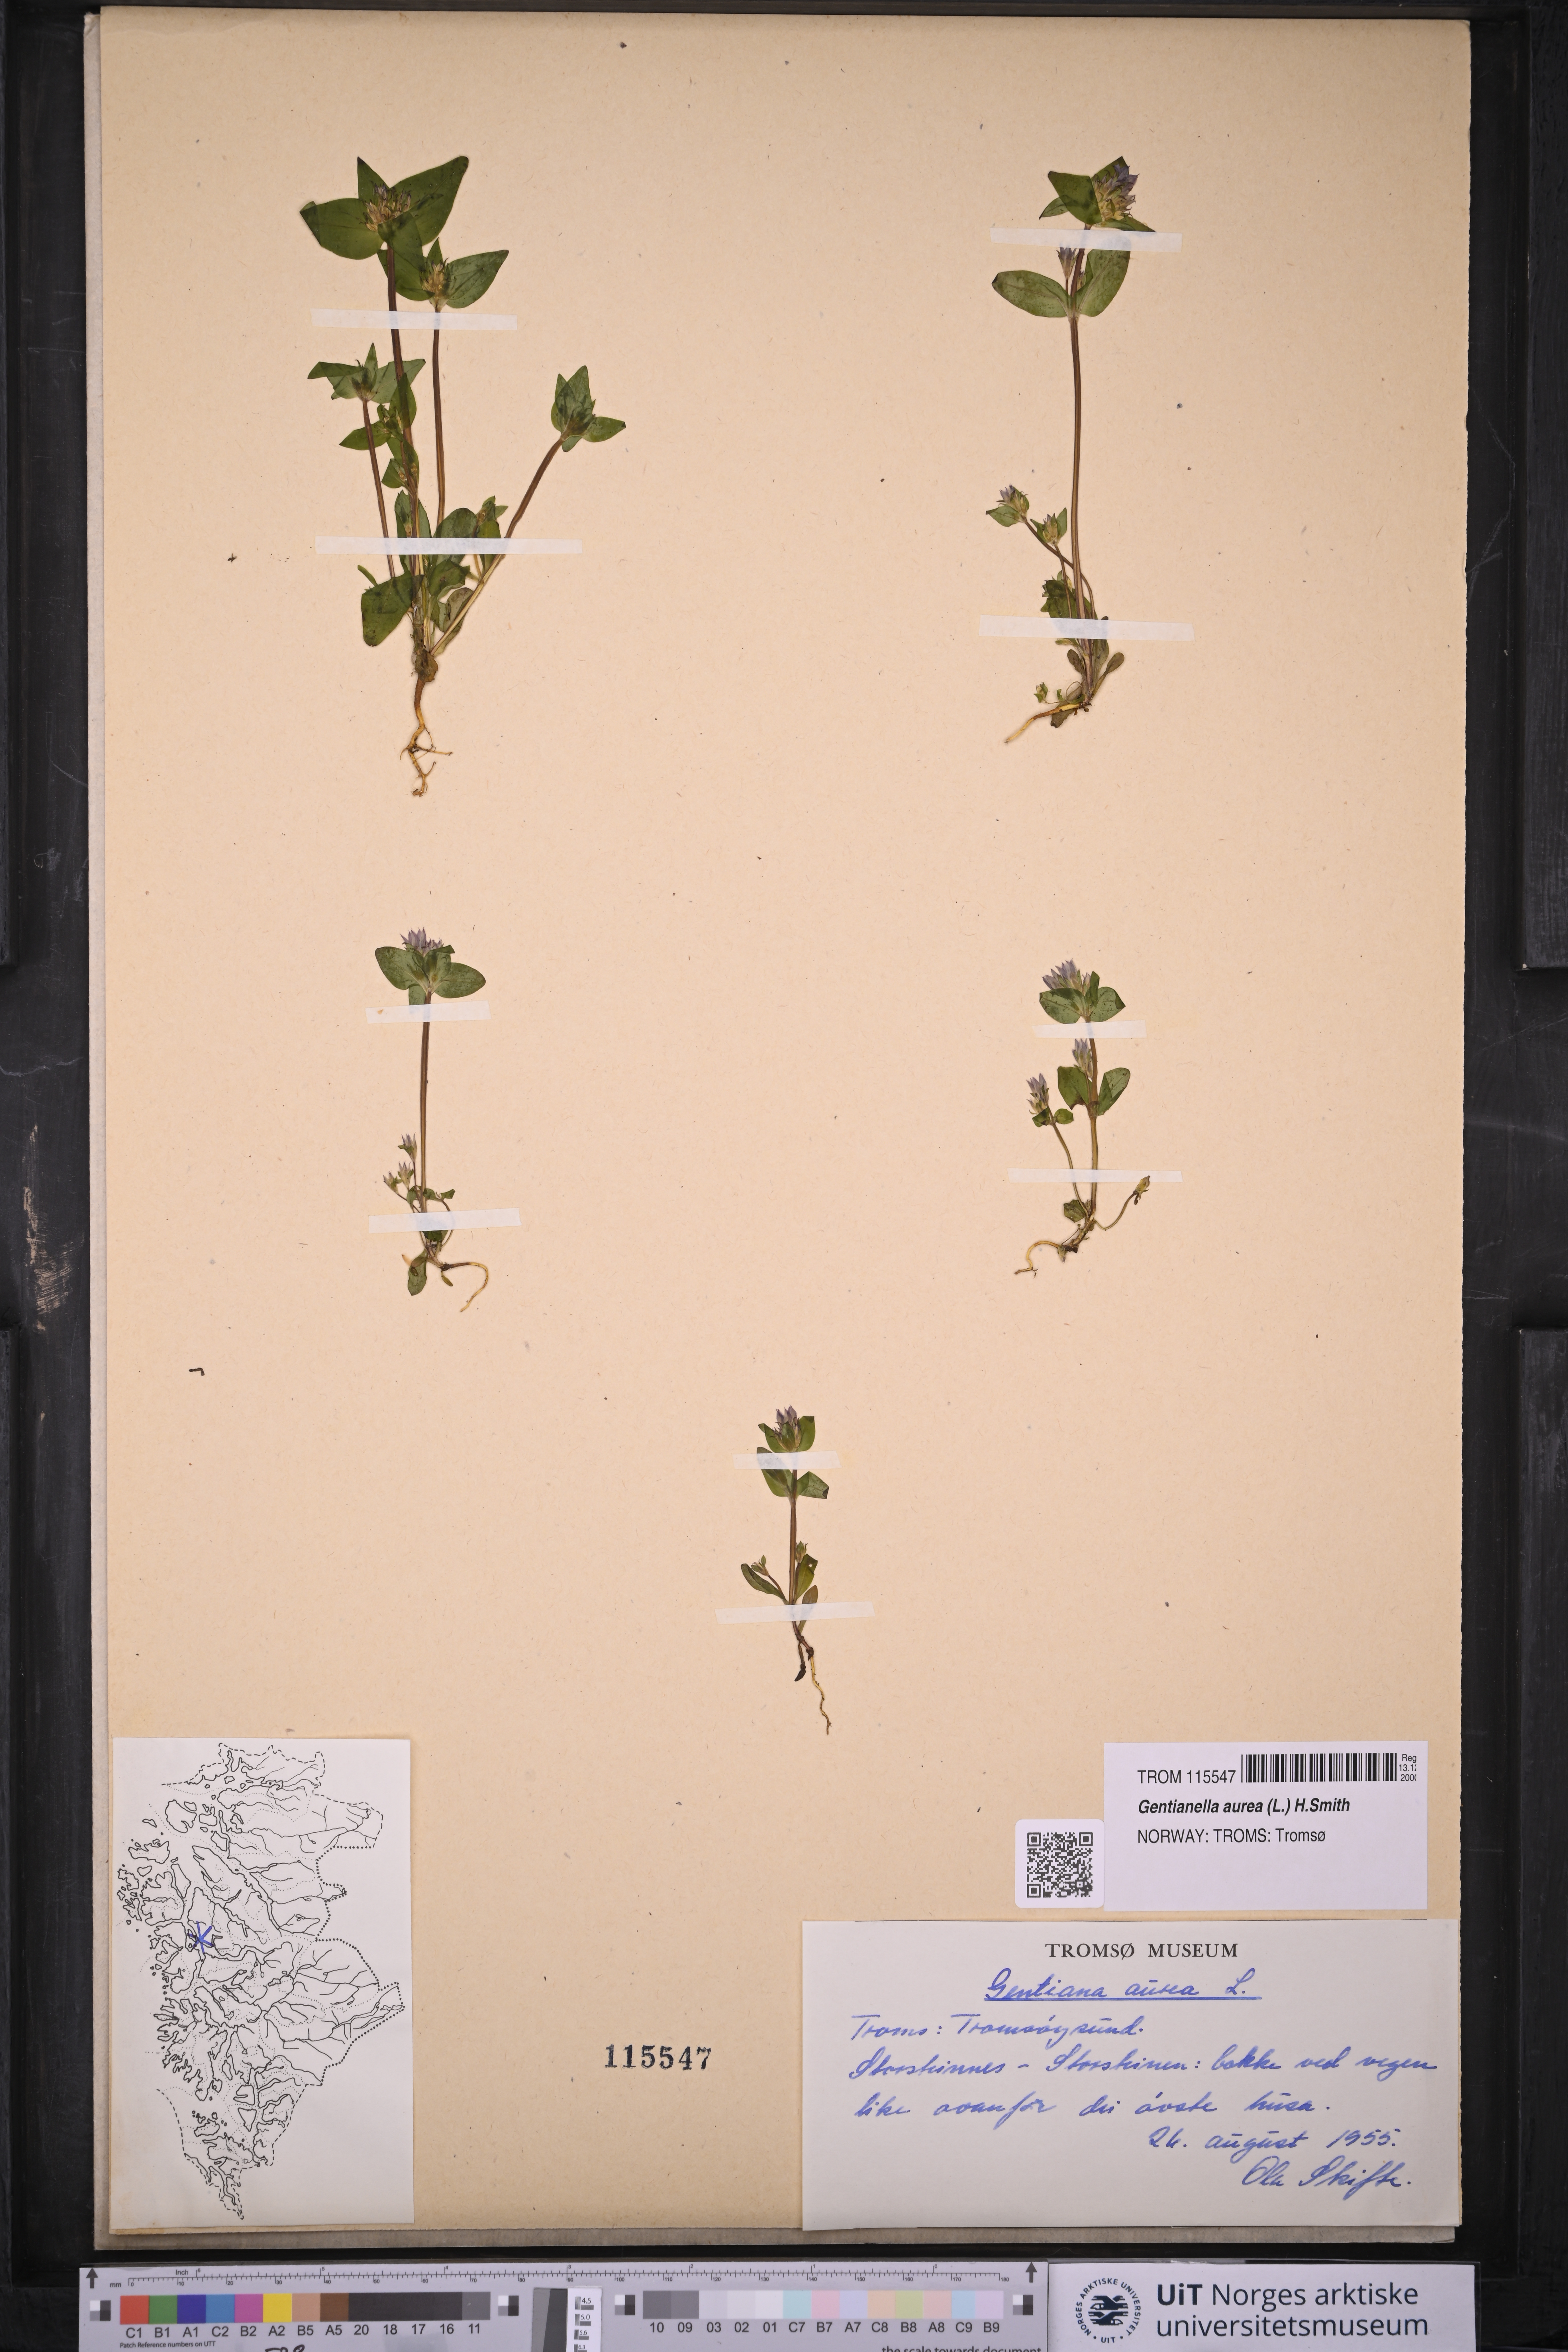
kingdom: Plantae
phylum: Tracheophyta
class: Magnoliopsida
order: Gentianales
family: Gentianaceae
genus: Gentianella
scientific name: Gentianella aurea
